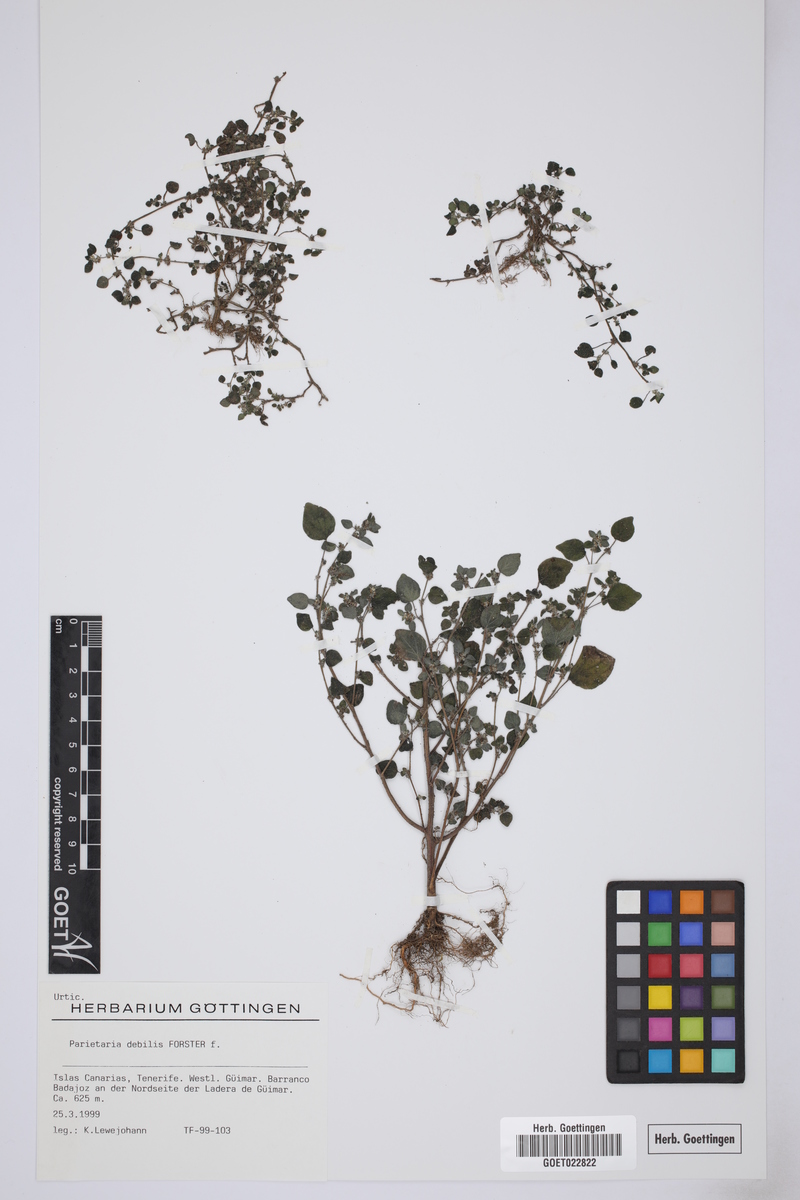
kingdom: Plantae
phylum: Tracheophyta
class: Magnoliopsida
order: Rosales
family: Urticaceae
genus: Parietaria
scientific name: Parietaria debilis
